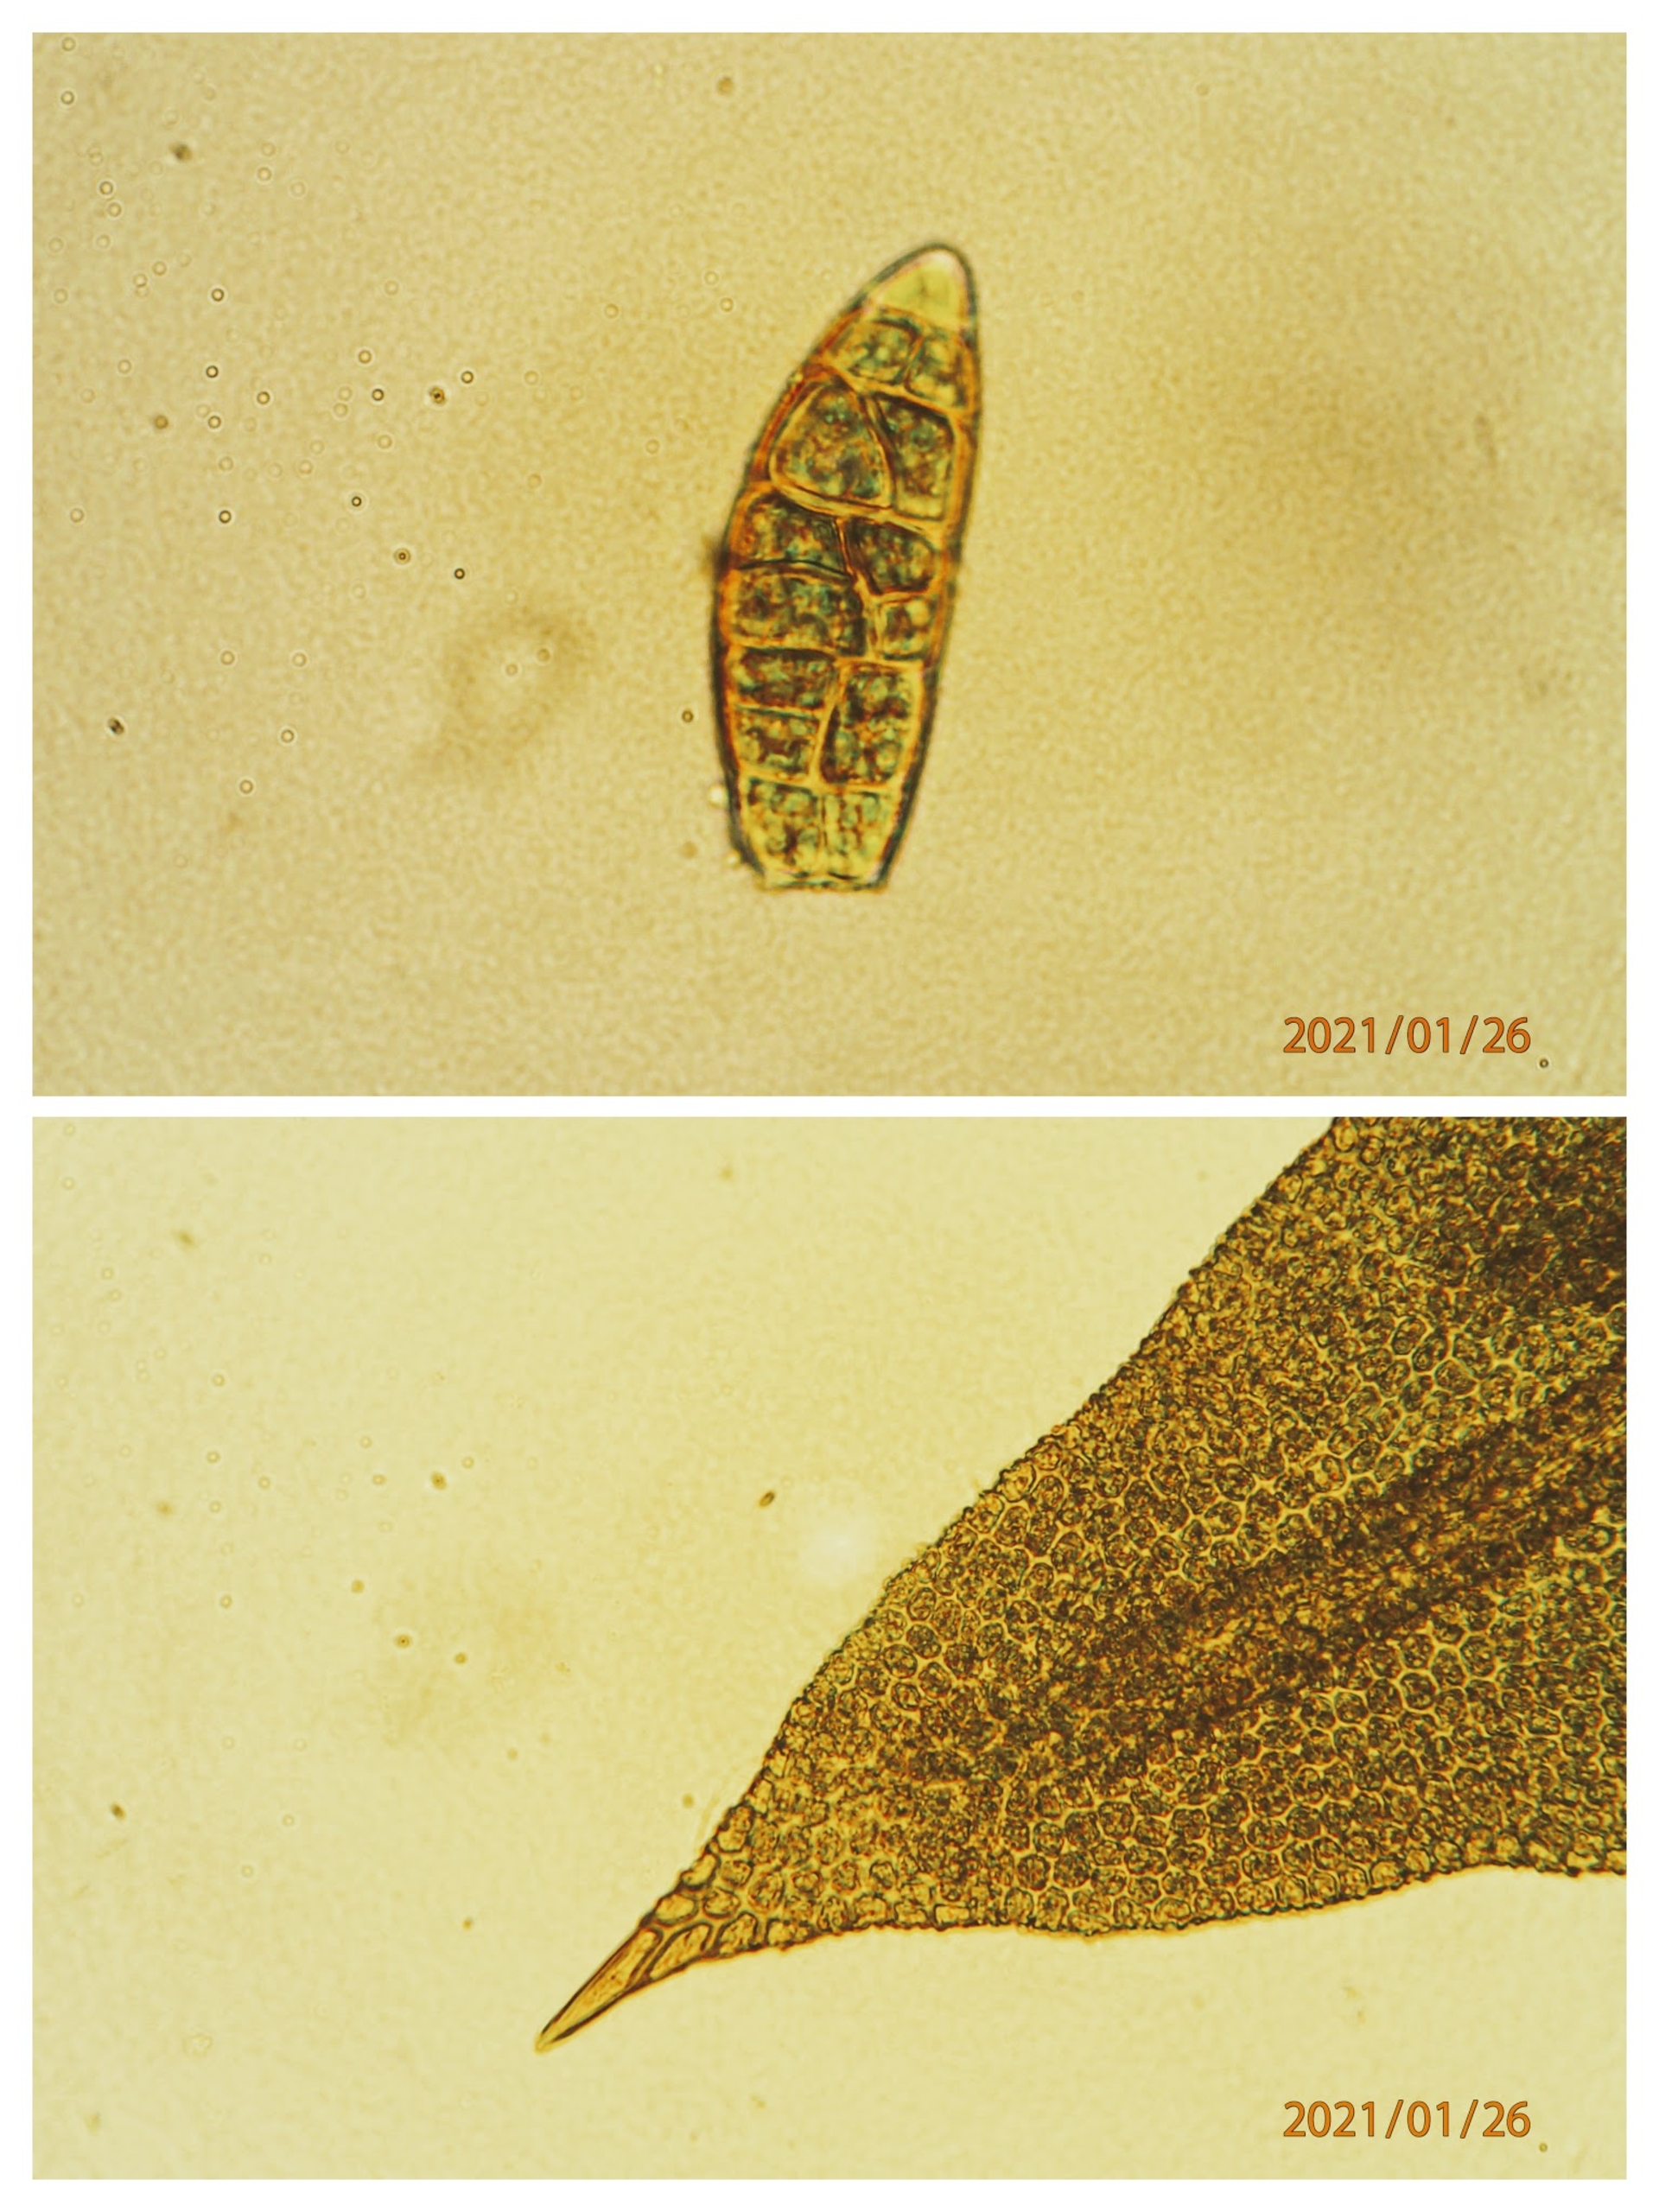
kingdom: Plantae
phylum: Bryophyta
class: Bryopsida
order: Orthotrichales
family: Orthotrichaceae
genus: Zygodon
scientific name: Zygodon viridissimus
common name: Grøn køllemos
